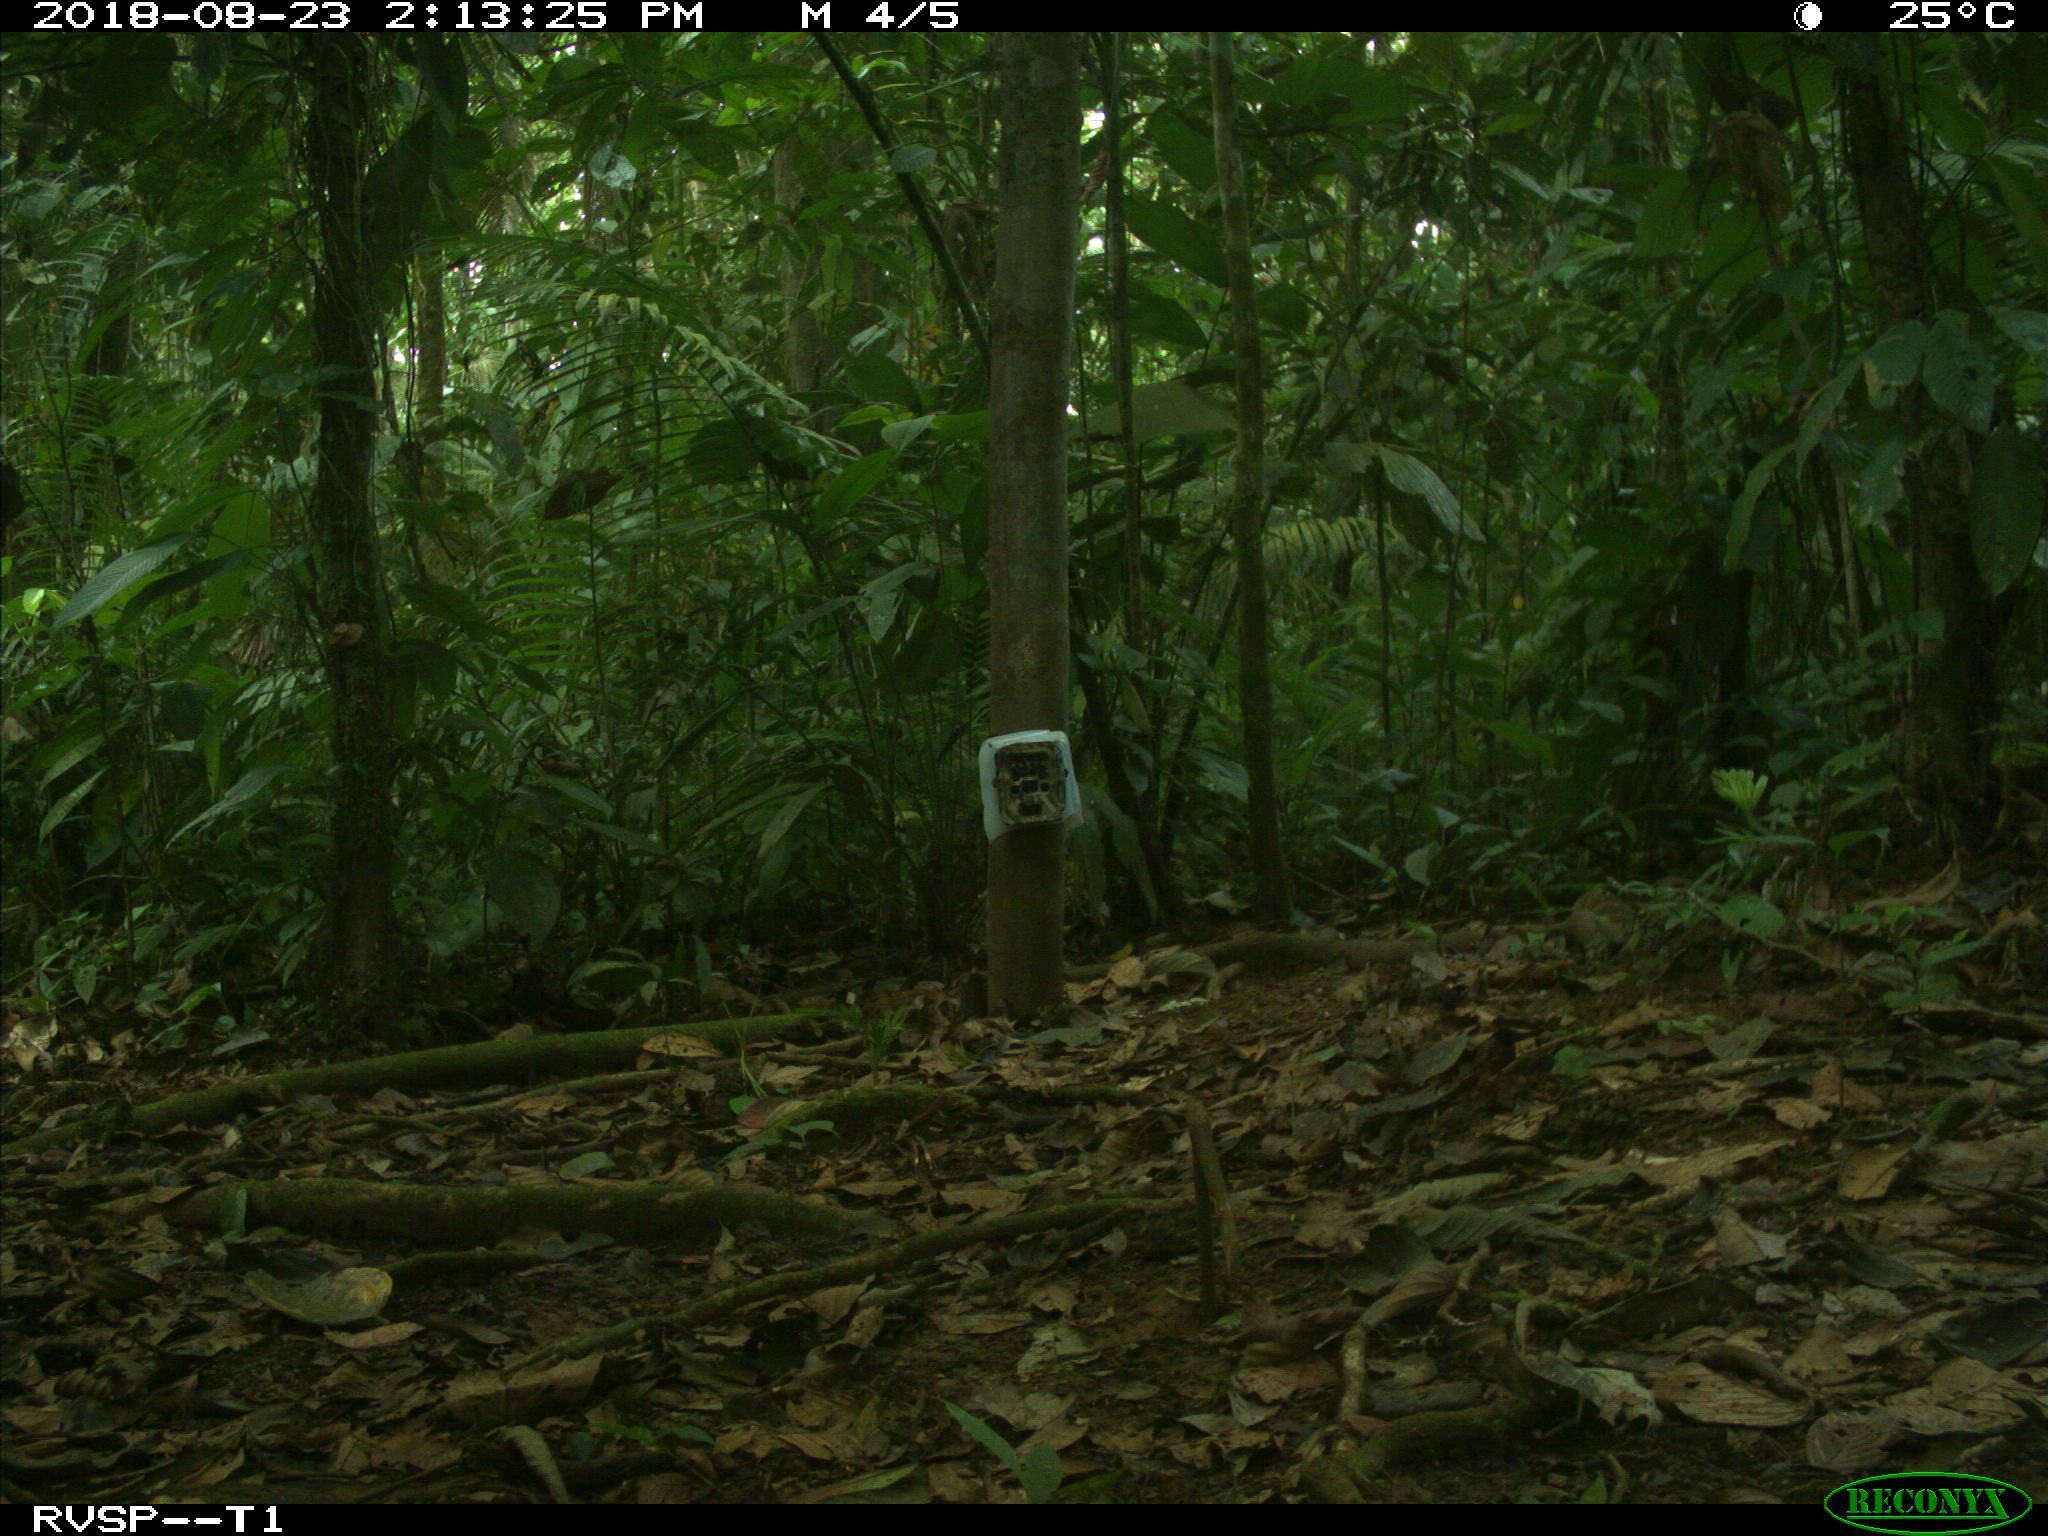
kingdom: Animalia
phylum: Chordata
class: Mammalia
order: Carnivora
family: Felidae
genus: Leopardus
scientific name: Leopardus pardalis
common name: Ocelot
